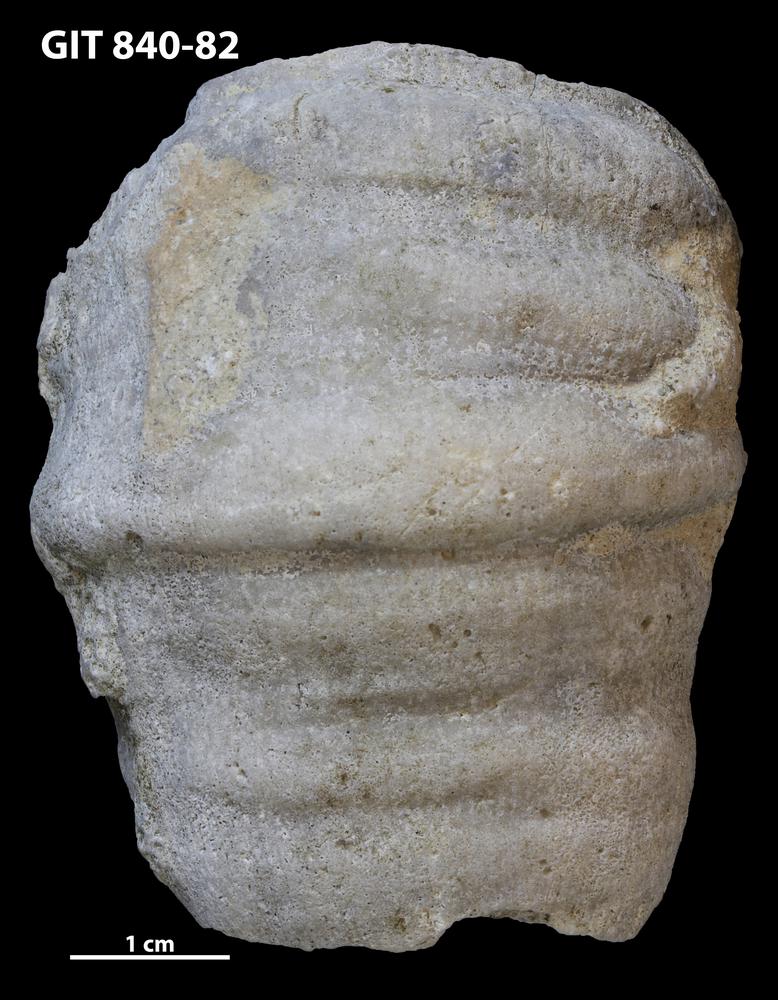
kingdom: Animalia
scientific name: Animalia
